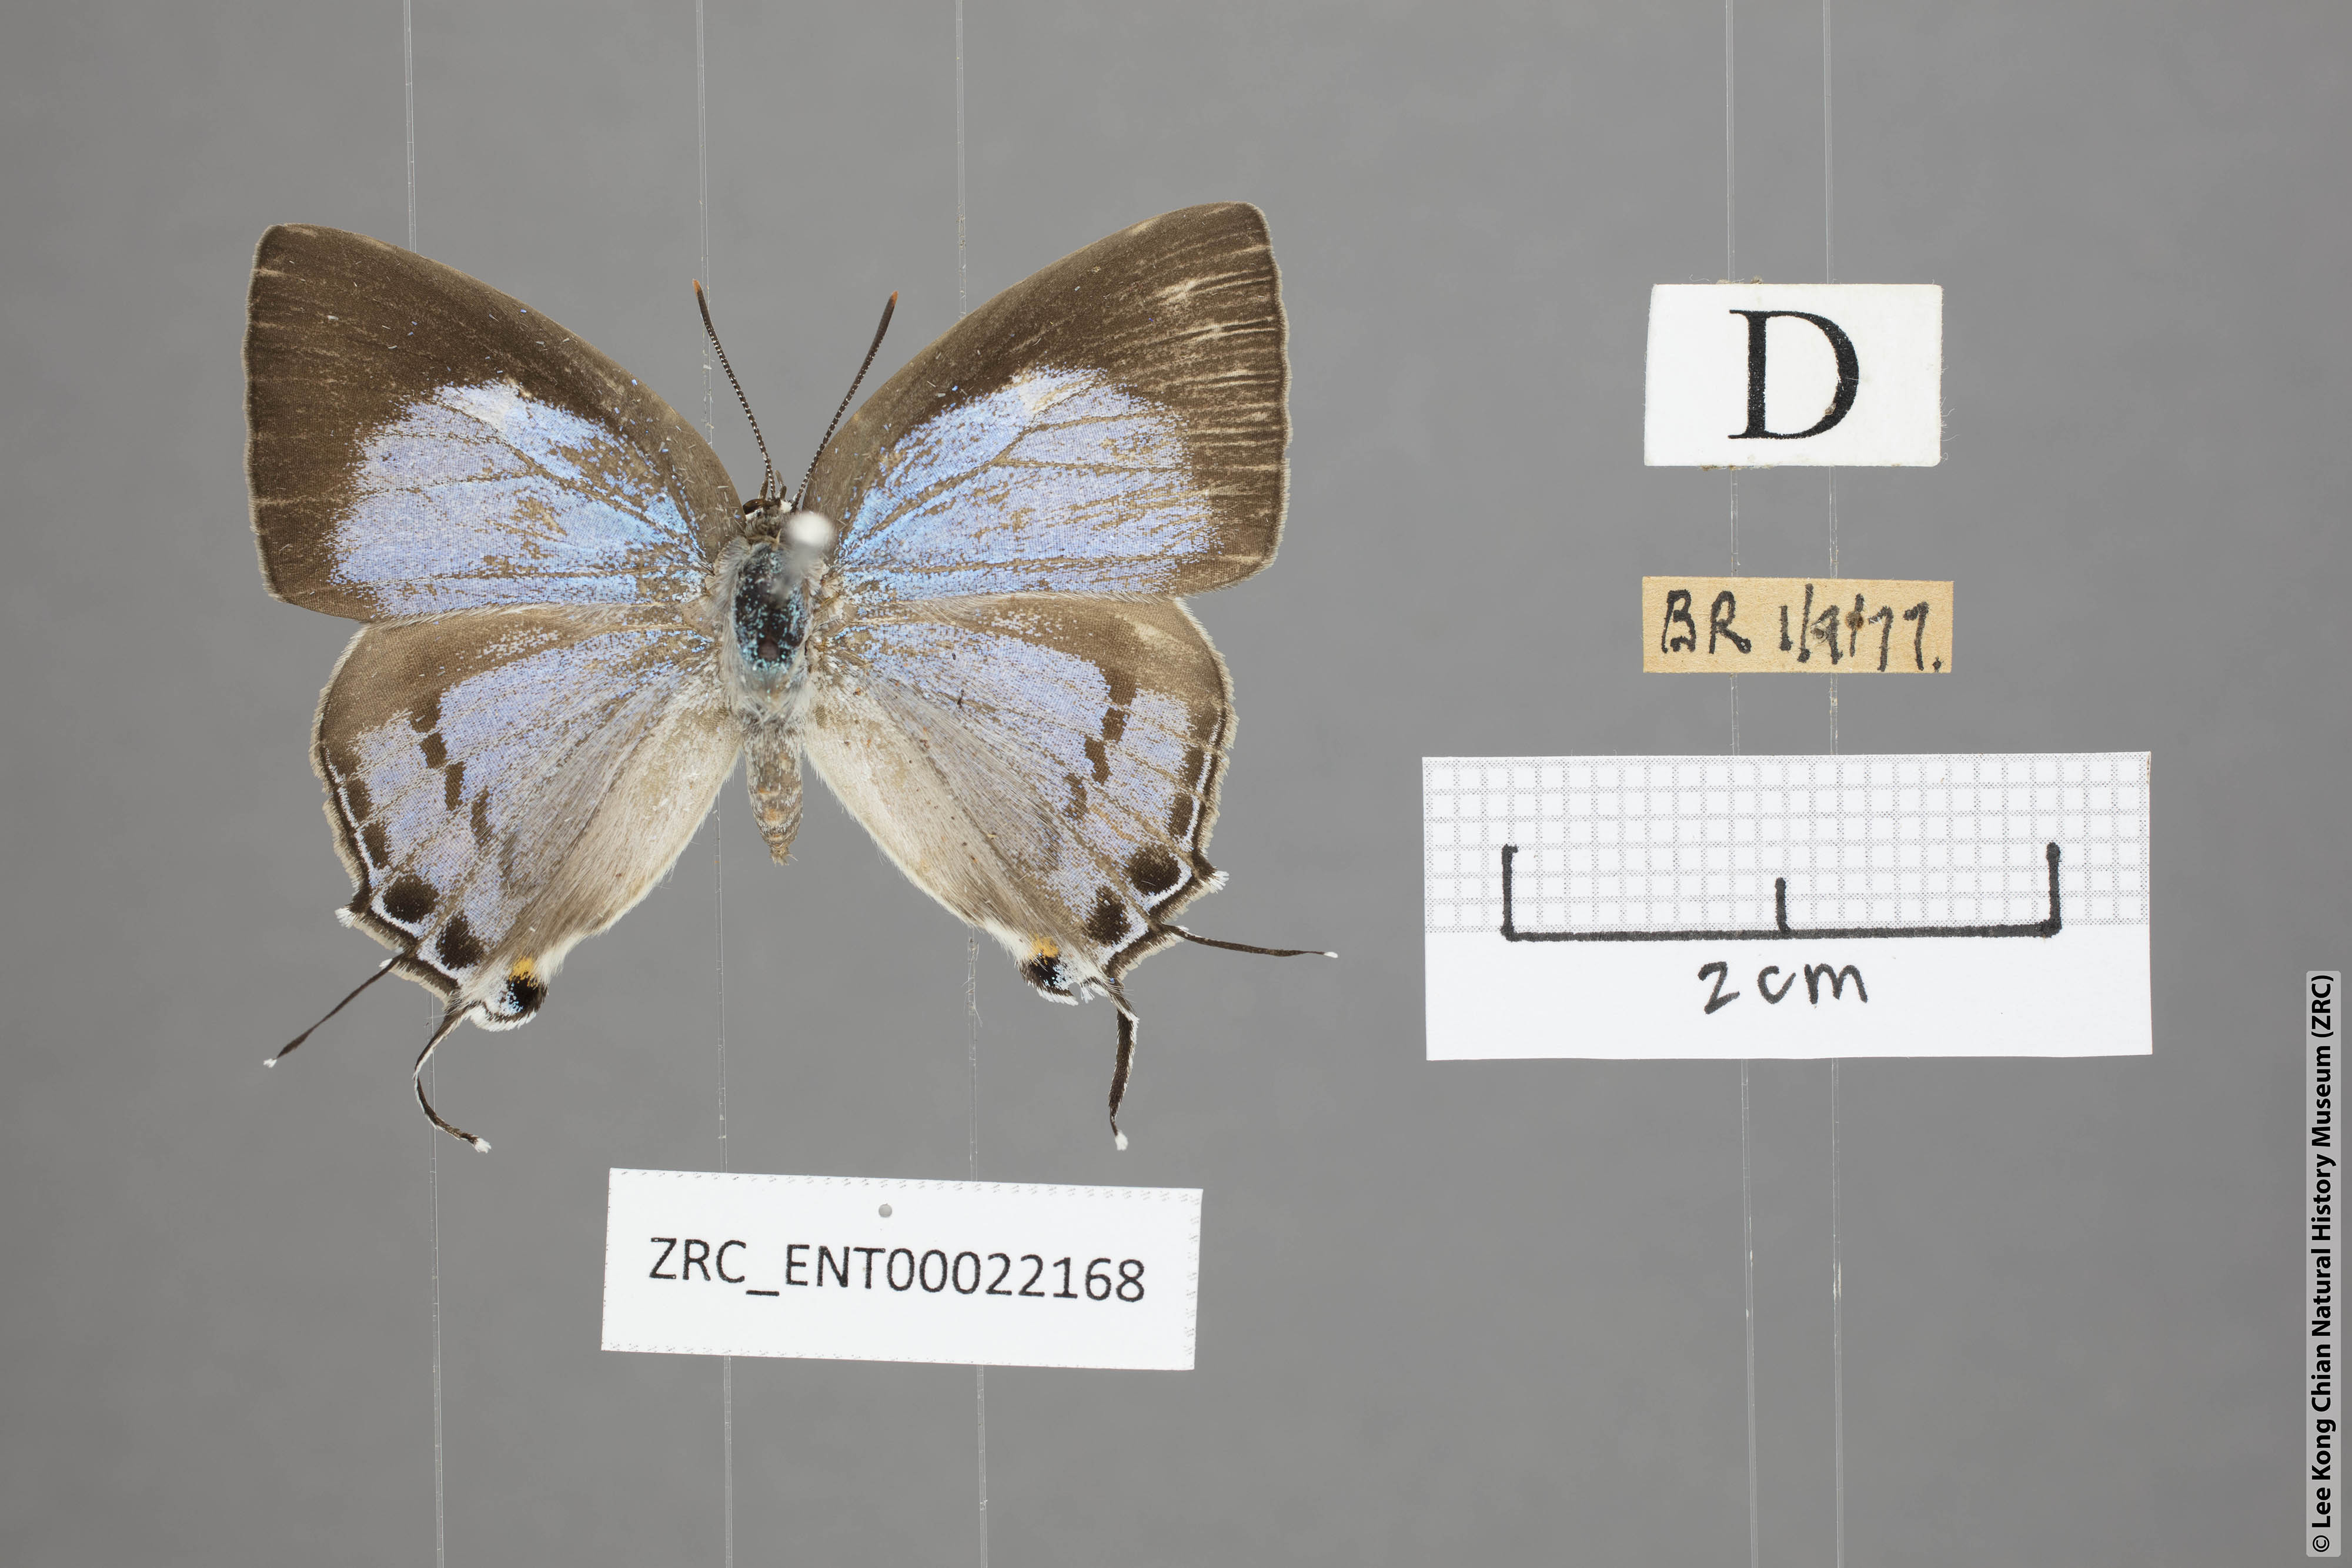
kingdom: Animalia
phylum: Arthropoda
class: Insecta
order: Lepidoptera
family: Lycaenidae
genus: Tajuria
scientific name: Tajuria cippus
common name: Peacock royal
